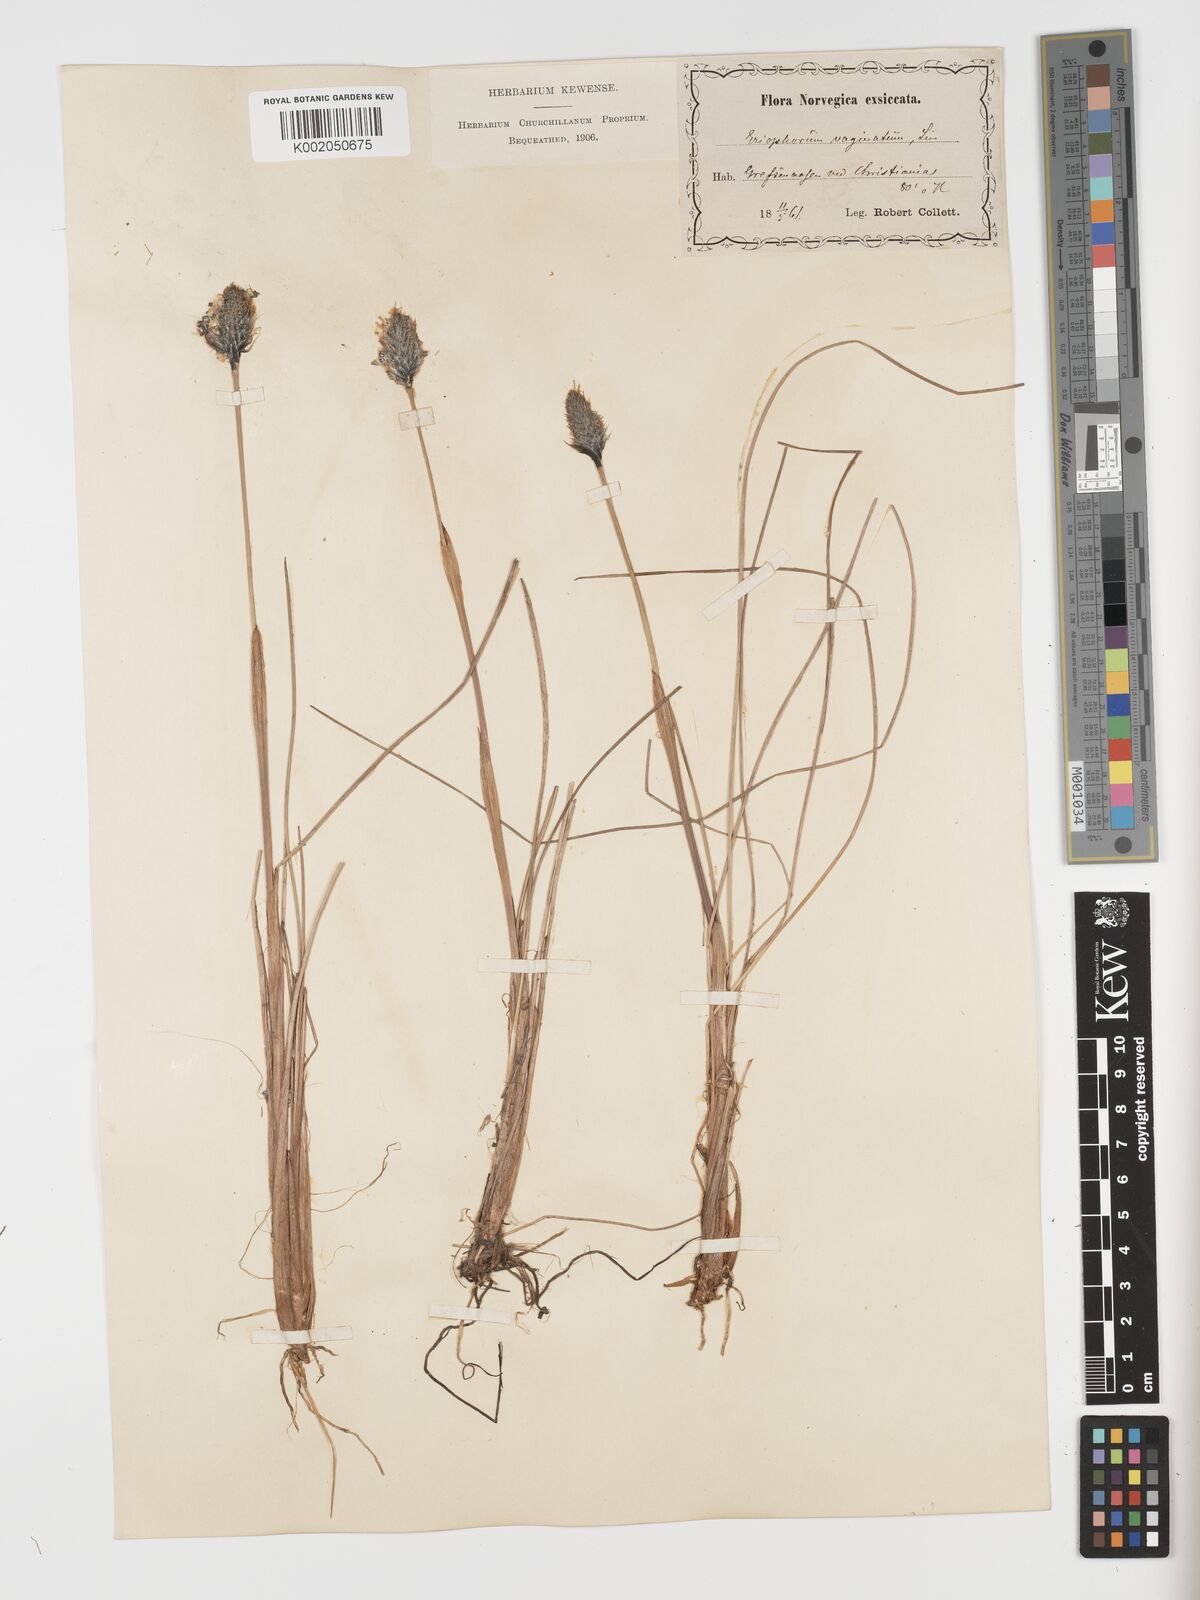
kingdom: Plantae
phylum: Tracheophyta
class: Liliopsida
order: Poales
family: Cyperaceae
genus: Eriophorum
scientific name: Eriophorum vaginatum
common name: Hare's-tail cottongrass
